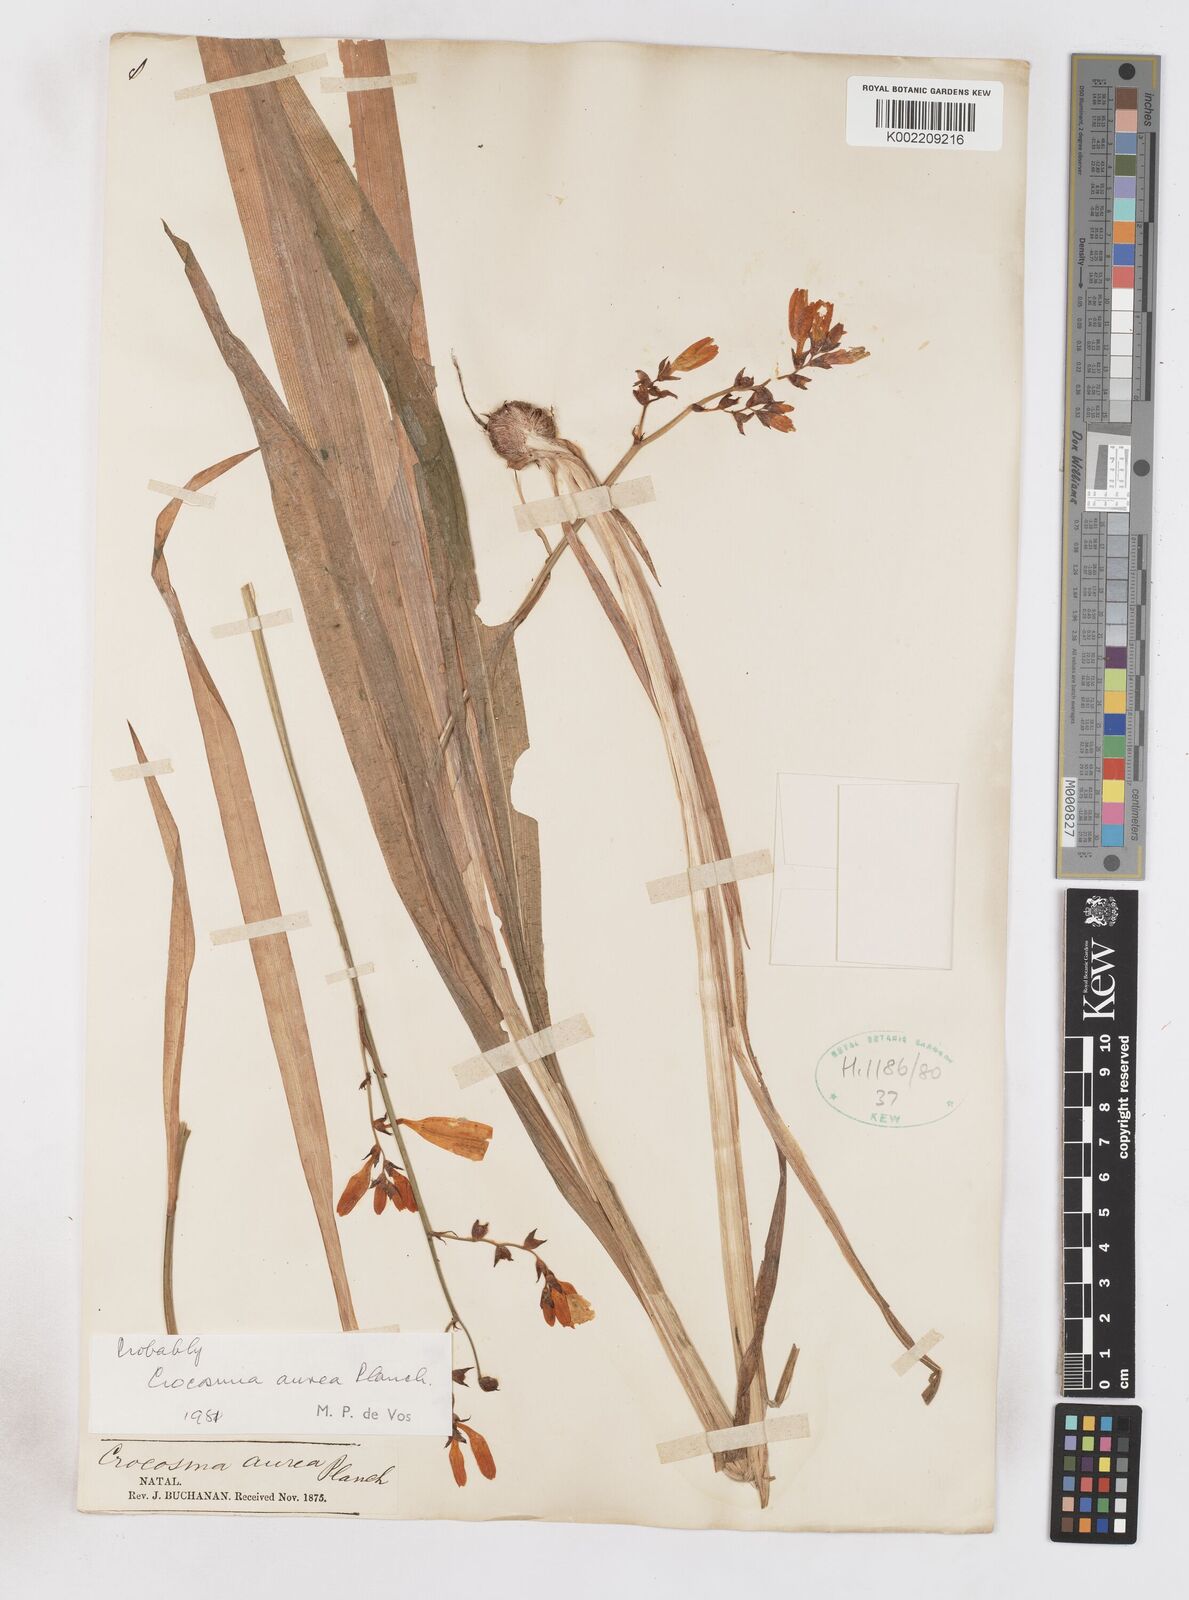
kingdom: Plantae
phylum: Tracheophyta
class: Liliopsida
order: Asparagales
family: Iridaceae
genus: Crocosmia
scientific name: Crocosmia aurea
